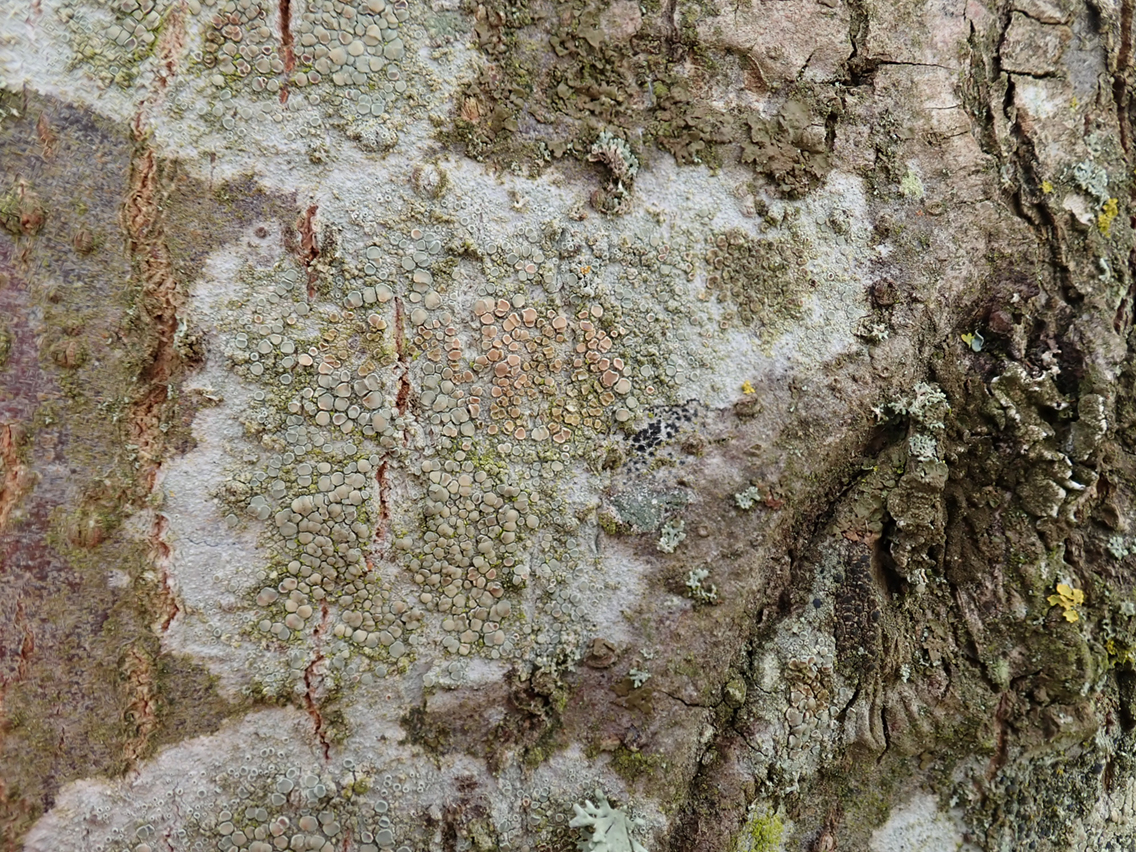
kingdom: Fungi
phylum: Ascomycota
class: Lecanoromycetes
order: Lecanorales
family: Lecanoraceae
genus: Lecanora
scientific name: Lecanora chlarotera
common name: brun kantskivelav
